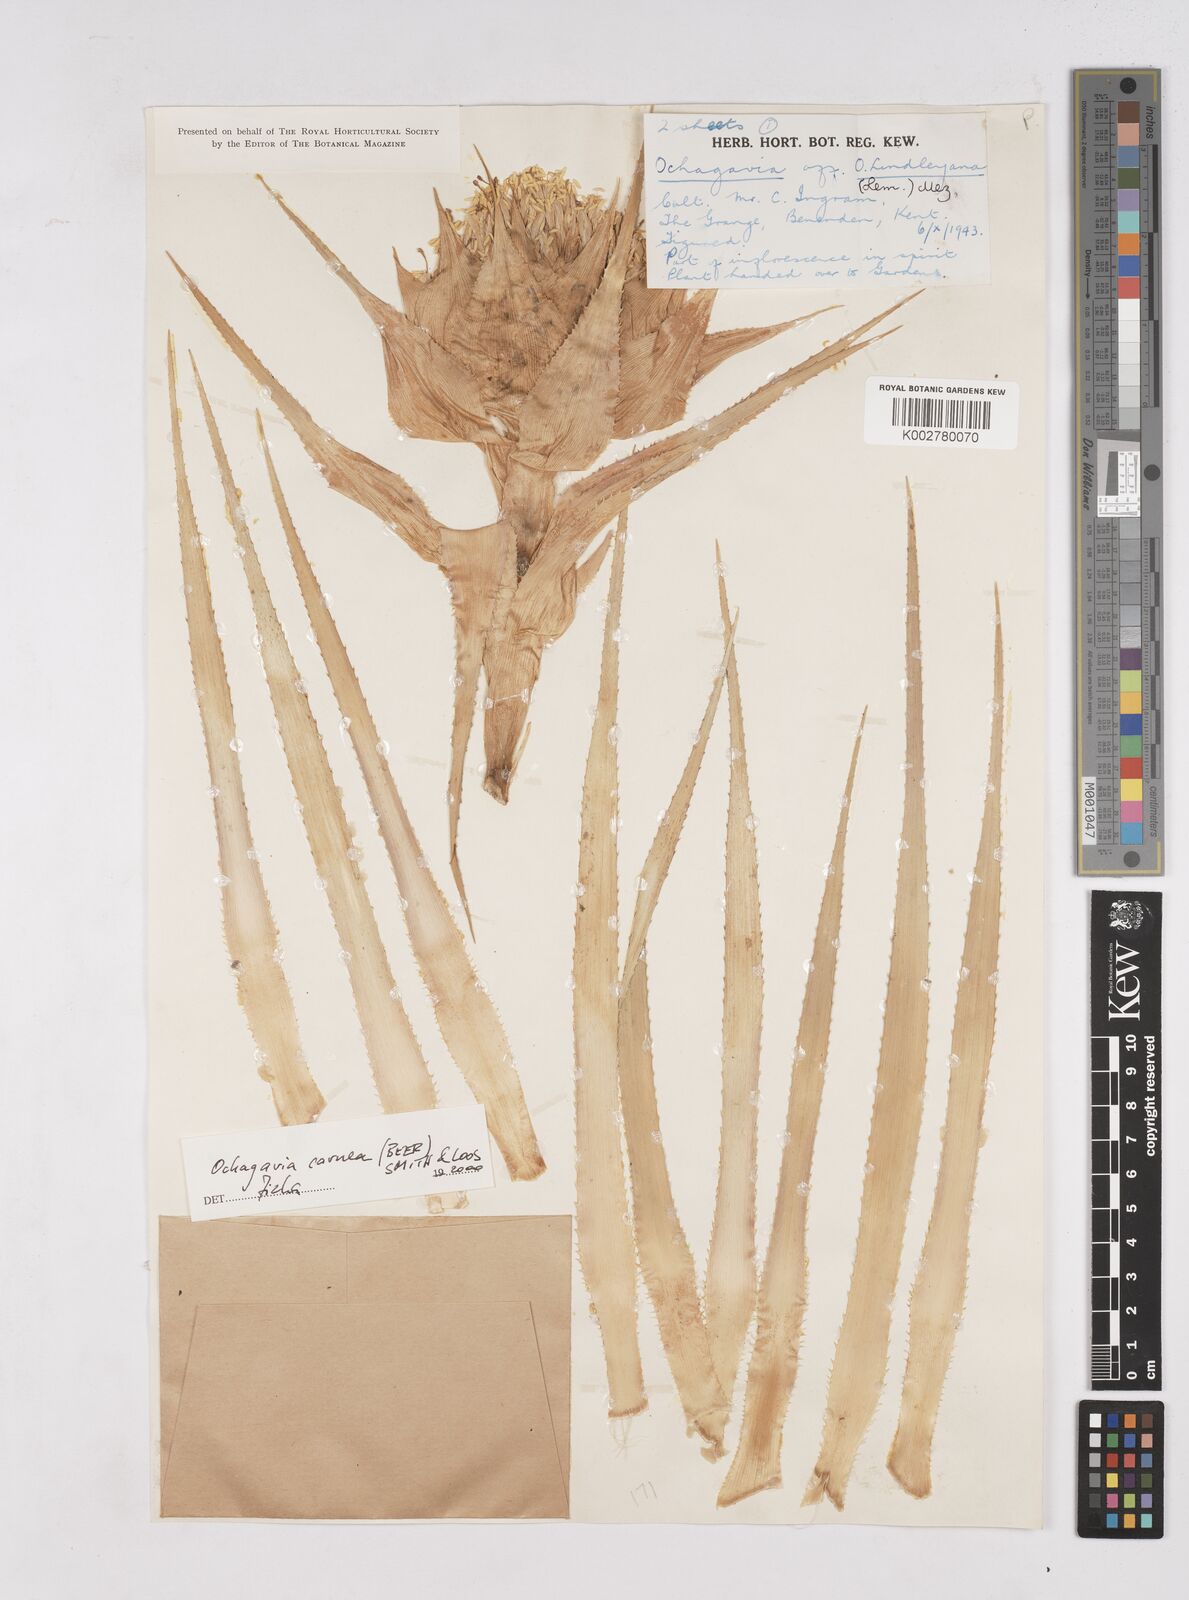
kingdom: Plantae
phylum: Tracheophyta
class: Liliopsida
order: Poales
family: Bromeliaceae
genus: Ochagavia
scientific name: Ochagavia carnea
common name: Tresco rhodostachys
